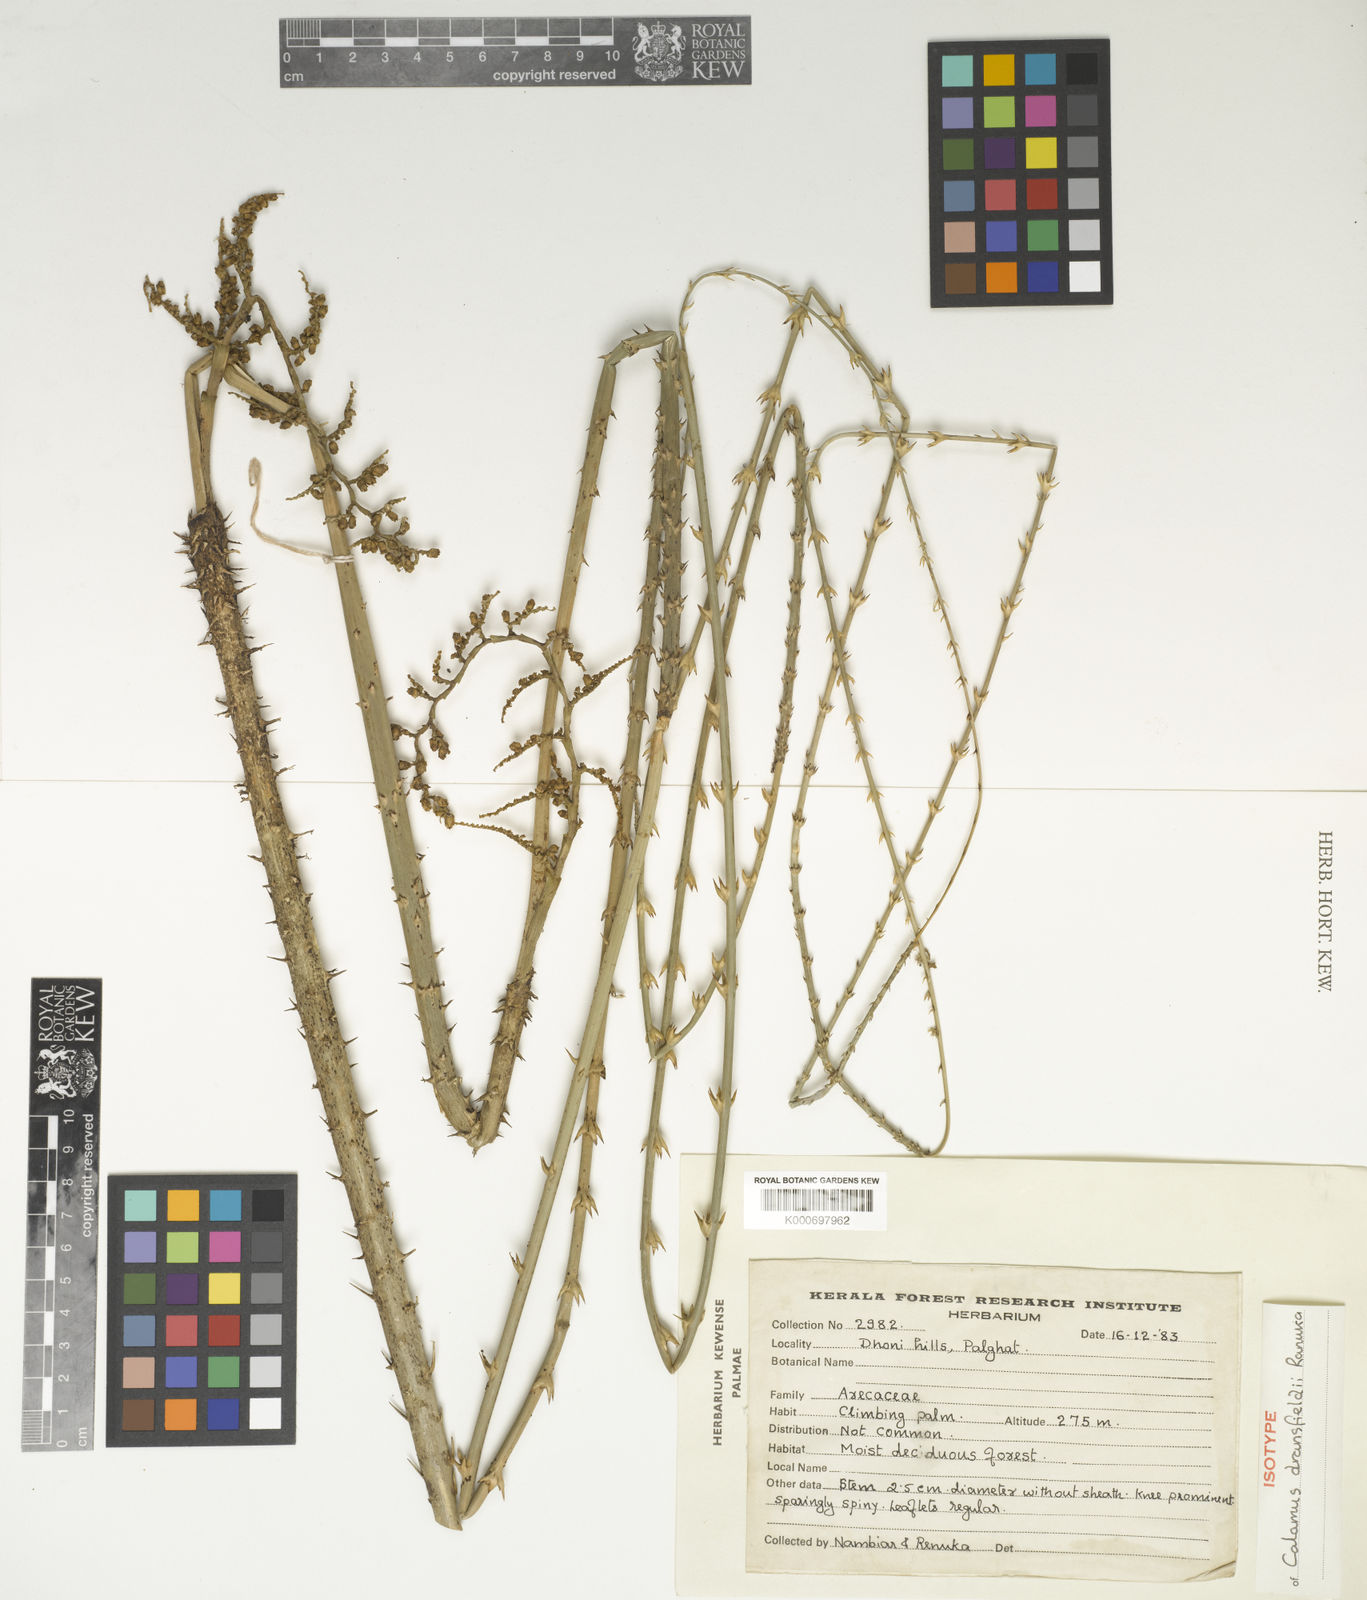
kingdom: Plantae
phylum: Tracheophyta
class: Liliopsida
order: Arecales
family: Arecaceae
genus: Calamus
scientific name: Calamus gamblei
